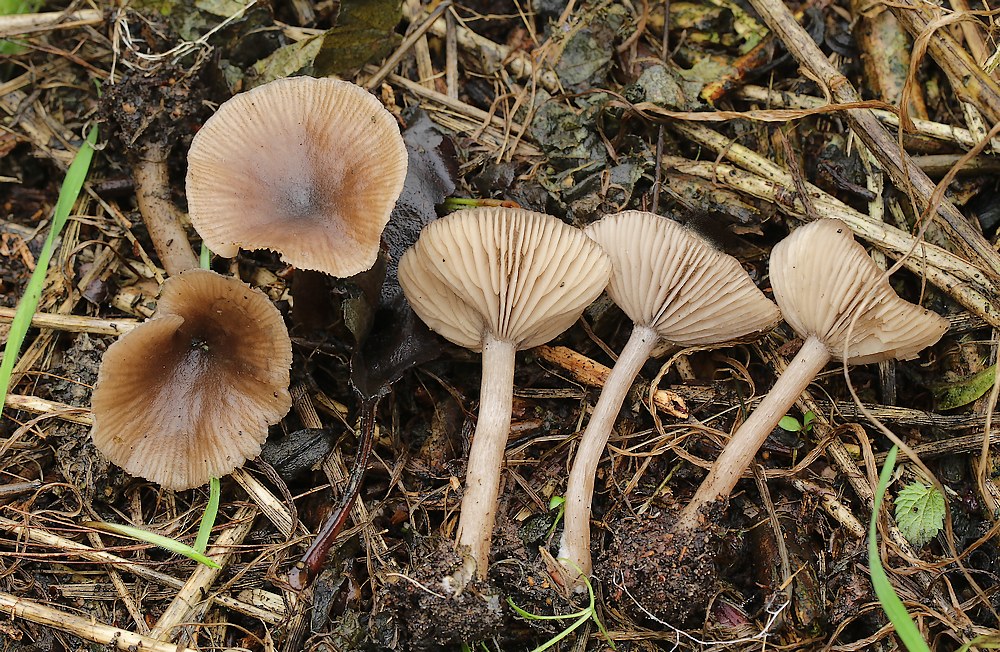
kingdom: Fungi
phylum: Basidiomycota
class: Agaricomycetes
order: Agaricales
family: Tricholomataceae
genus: Clitocybe
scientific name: Clitocybe
